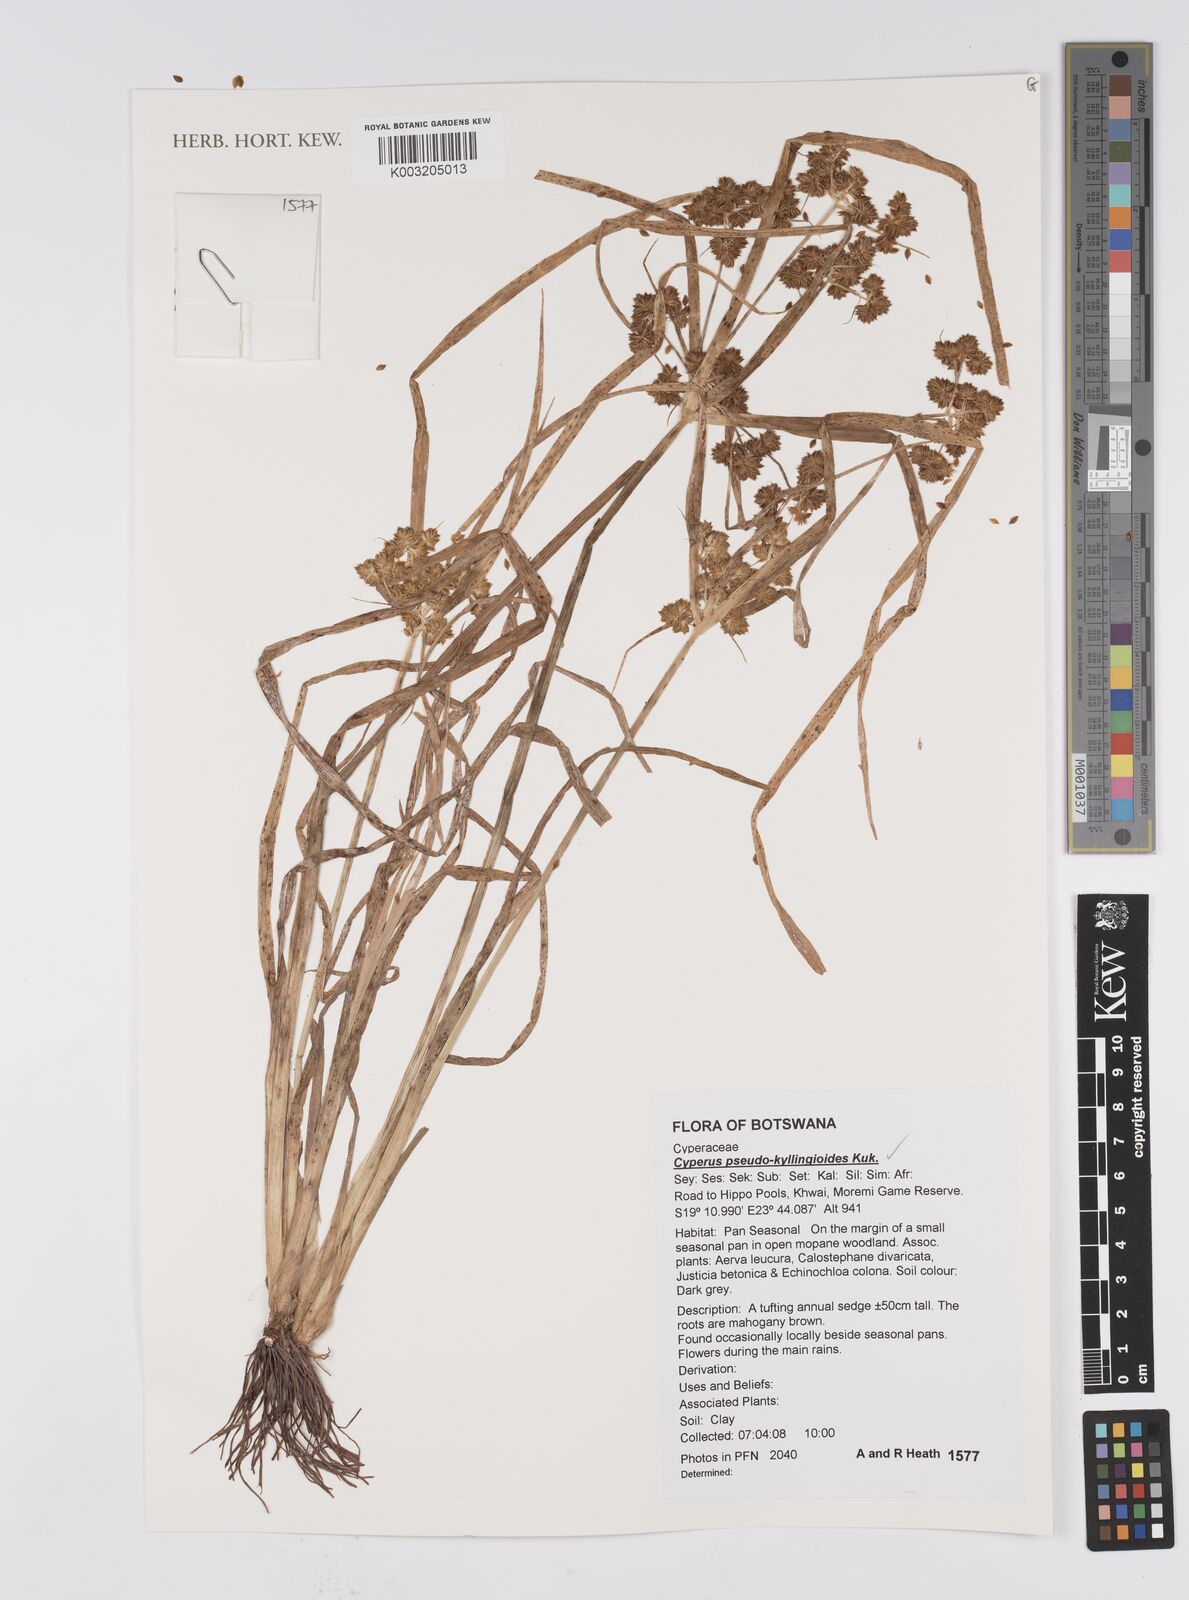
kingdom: Plantae
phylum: Tracheophyta
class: Liliopsida
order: Poales
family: Cyperaceae
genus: Cyperus
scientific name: Cyperus cyperoides
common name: Pacific island flat sedge
